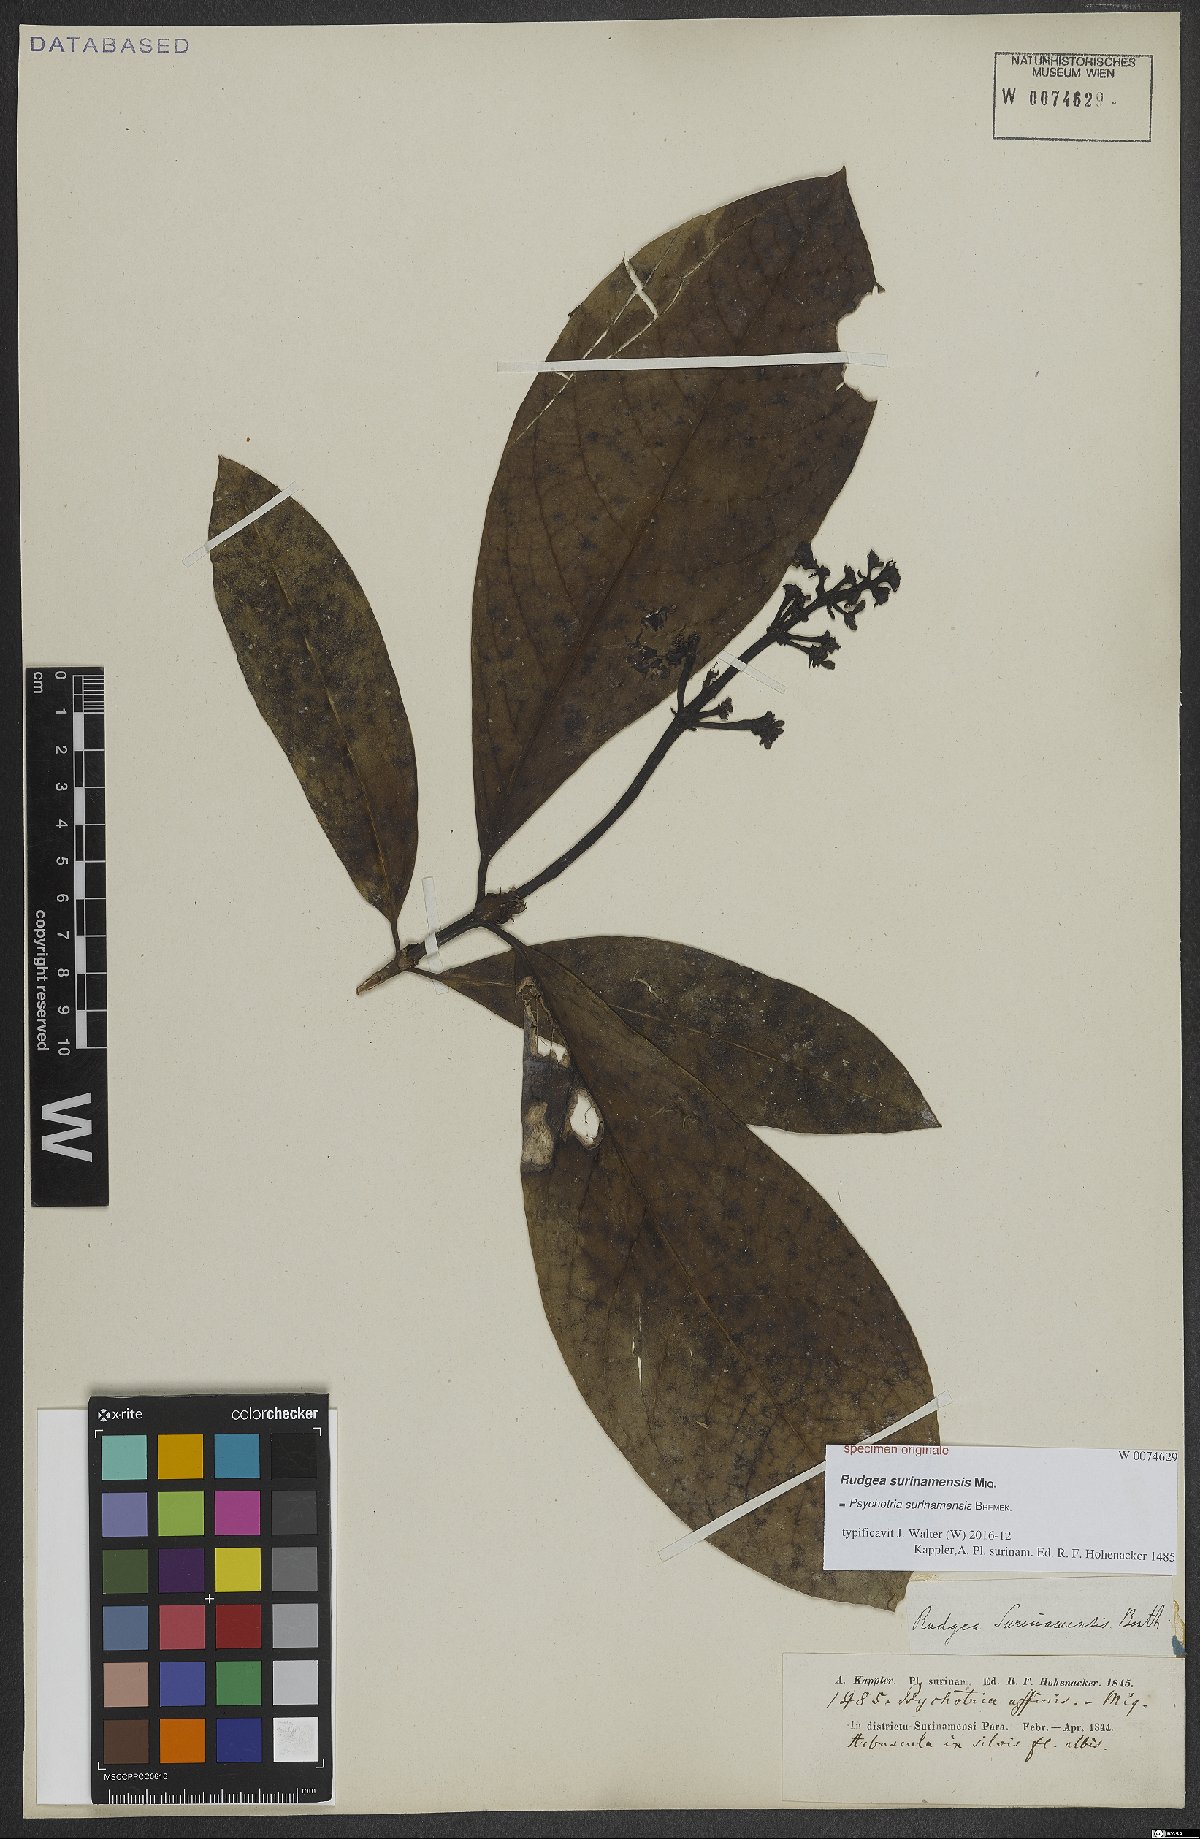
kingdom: Plantae
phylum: Tracheophyta
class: Magnoliopsida
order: Gentianales
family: Rubiaceae
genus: Palicourea
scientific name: Palicourea microbotrys
